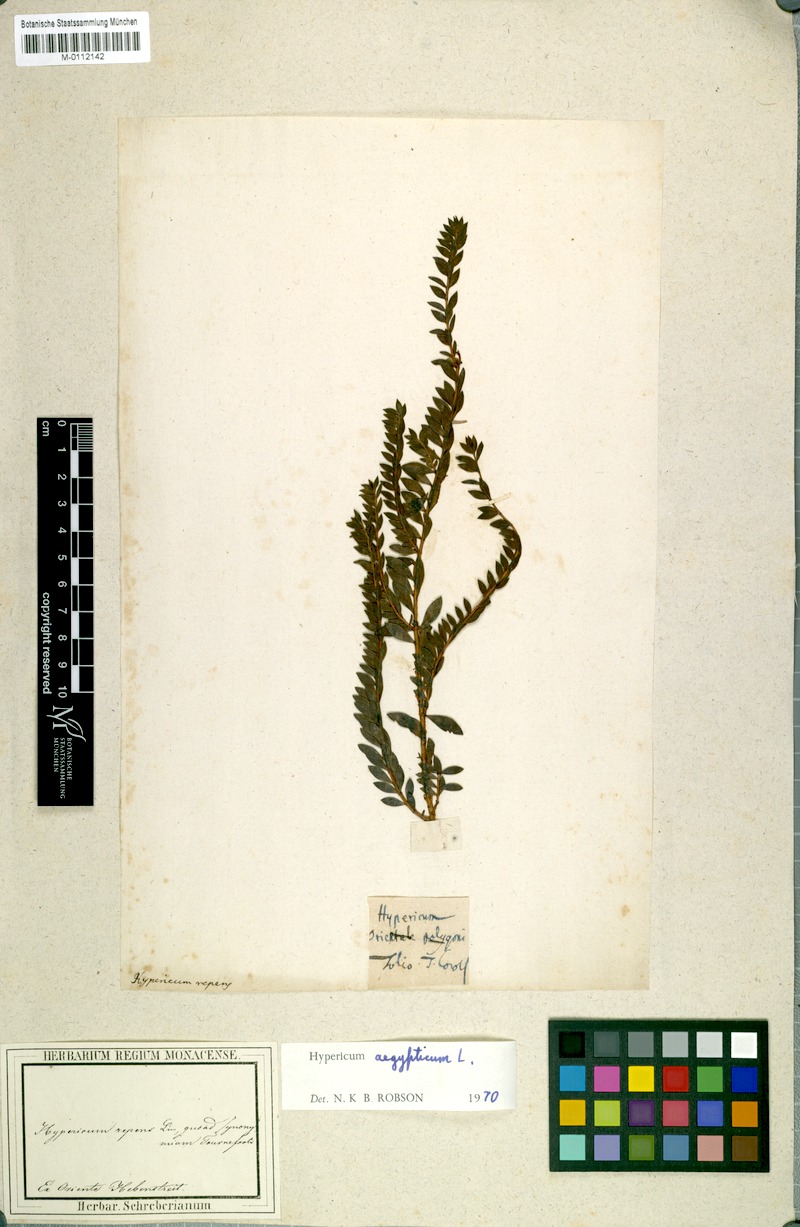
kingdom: Plantae
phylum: Tracheophyta
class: Magnoliopsida
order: Malpighiales
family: Hypericaceae
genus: Hypericum
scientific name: Hypericum aegypticum
